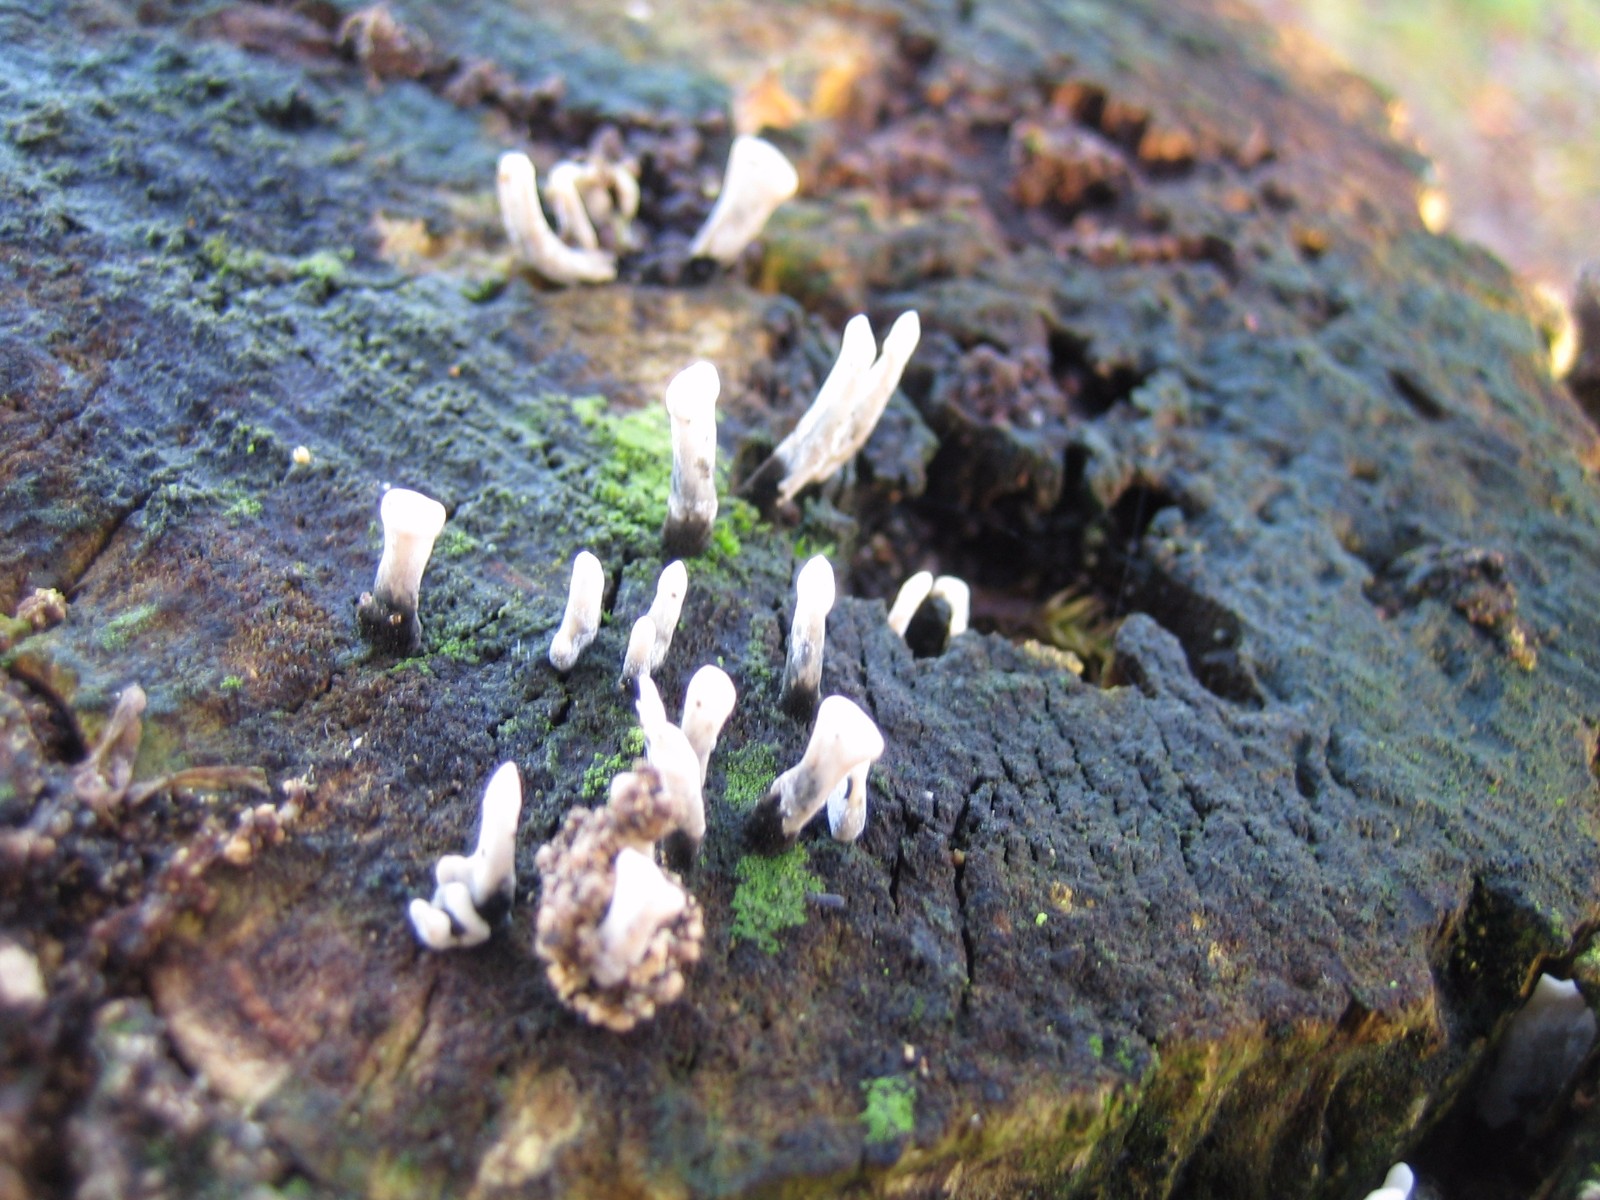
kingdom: Fungi
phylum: Ascomycota
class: Sordariomycetes
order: Xylariales
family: Xylariaceae
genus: Xylaria
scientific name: Xylaria hypoxylon
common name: grenet stødsvamp
